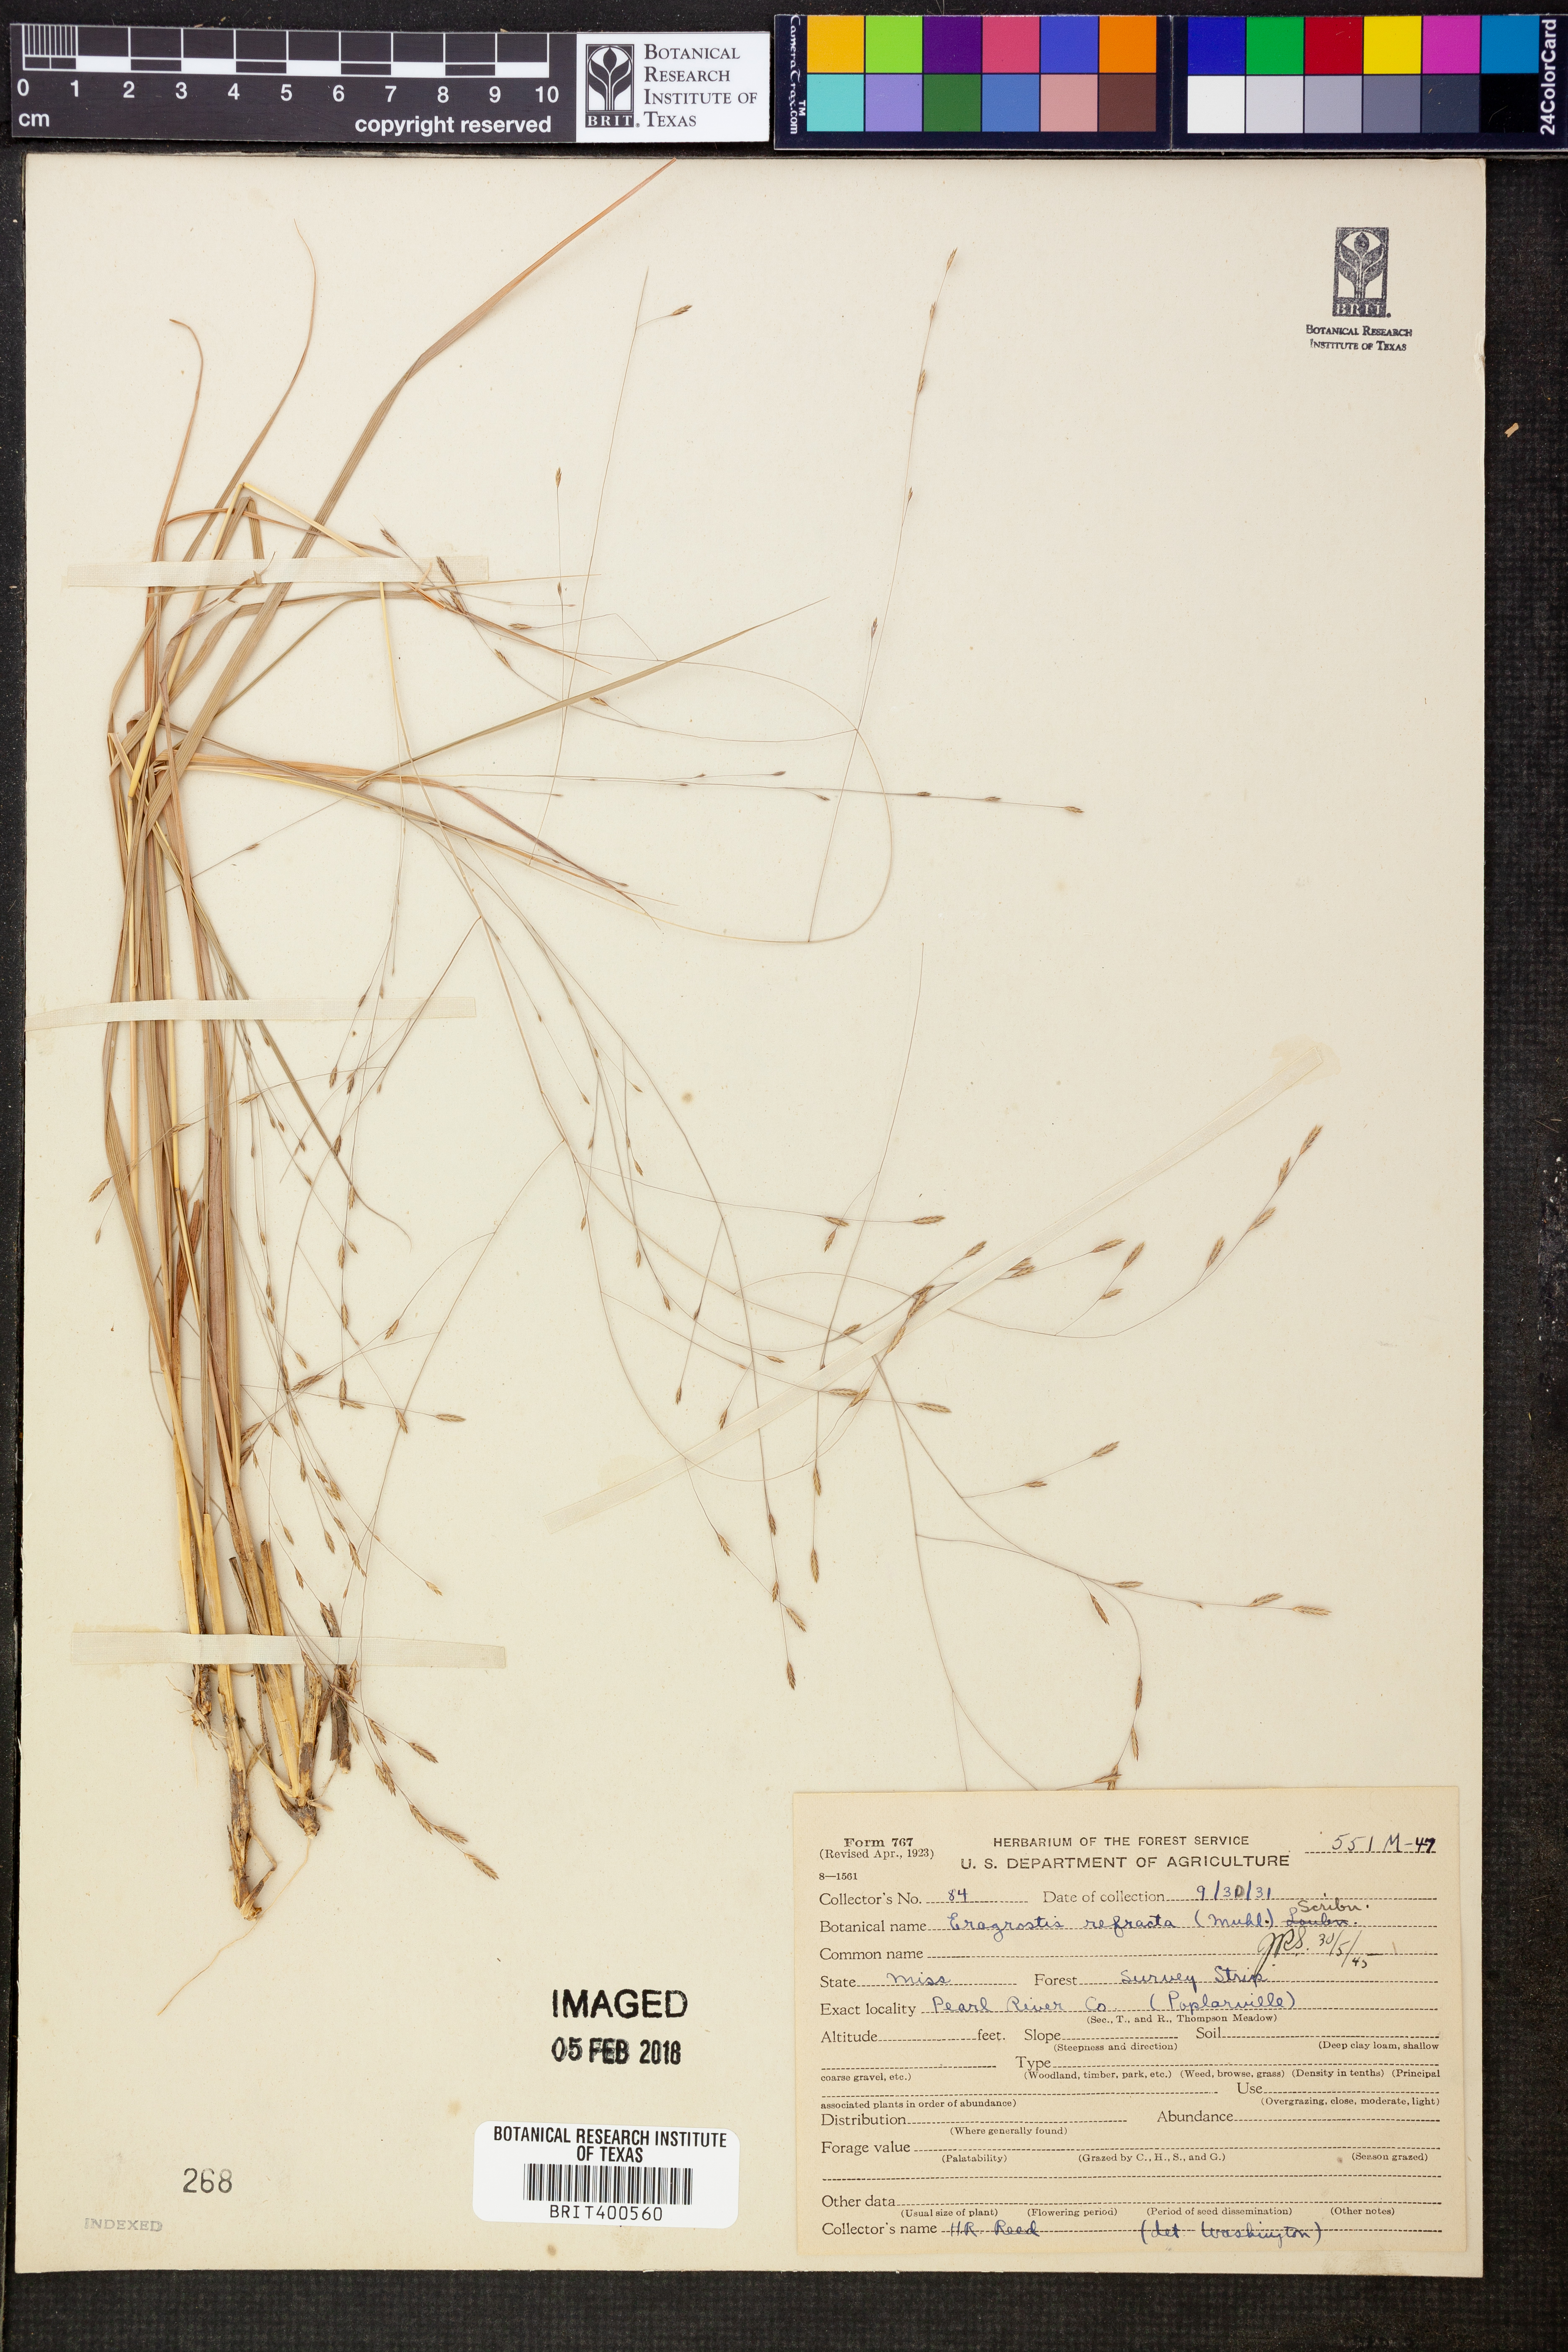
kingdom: Plantae
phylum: Tracheophyta
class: Liliopsida
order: Poales
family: Poaceae
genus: Eragrostis
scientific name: Eragrostis refracta
